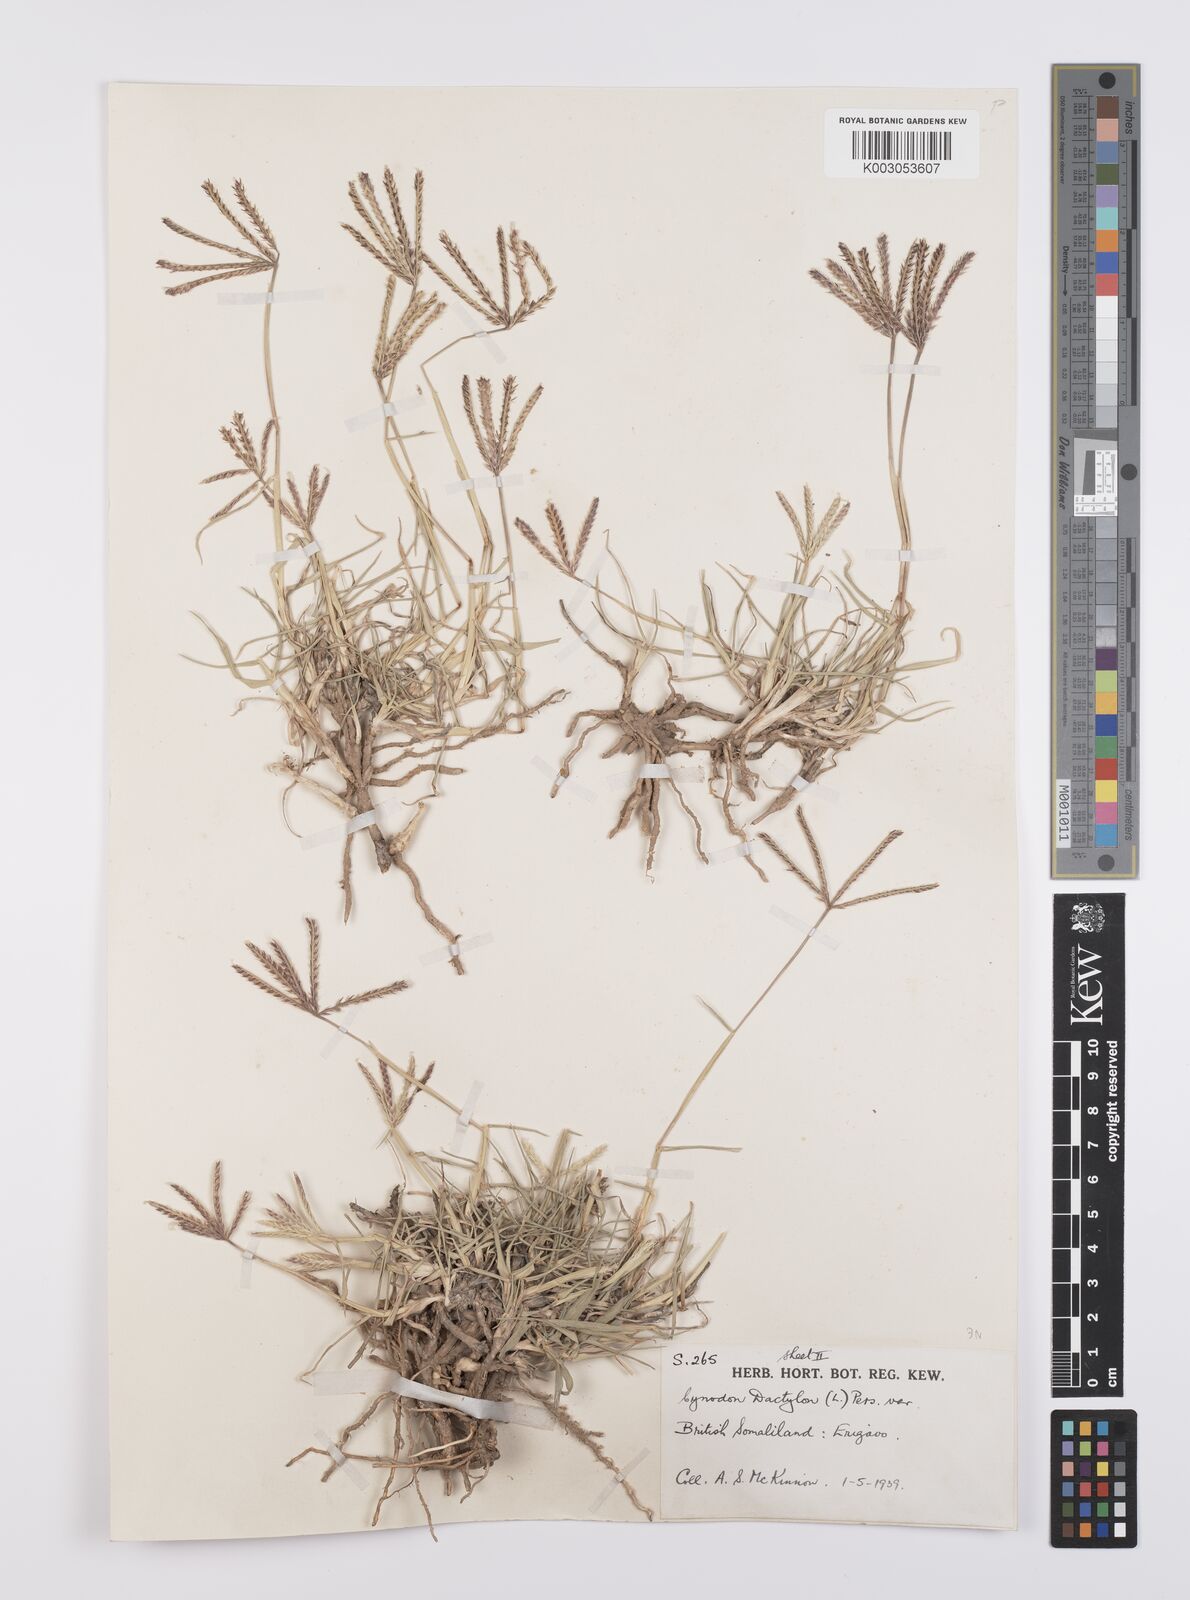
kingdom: Plantae
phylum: Tracheophyta
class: Liliopsida
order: Poales
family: Poaceae
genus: Cynodon
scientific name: Cynodon dactylon
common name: Bermuda grass
